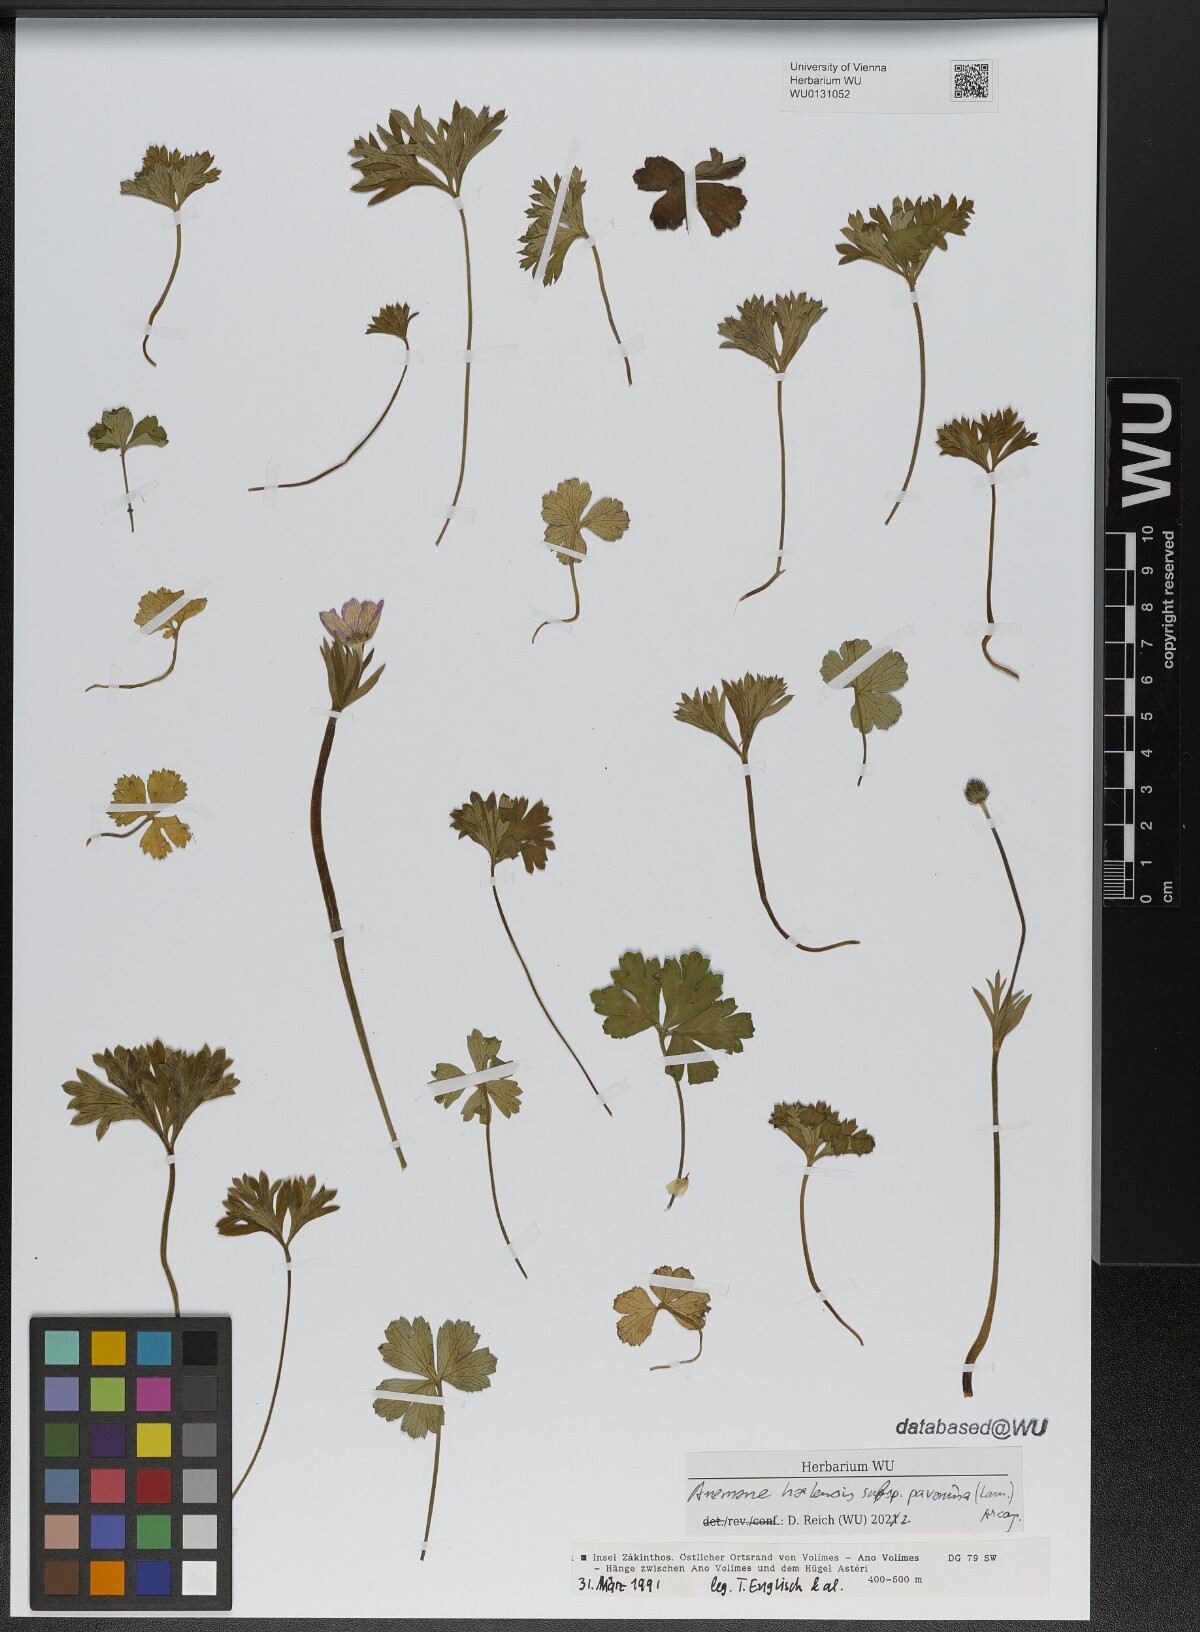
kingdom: Plantae
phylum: Tracheophyta
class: Magnoliopsida
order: Ranunculales
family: Ranunculaceae
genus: Anemone
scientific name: Anemone pavonina
